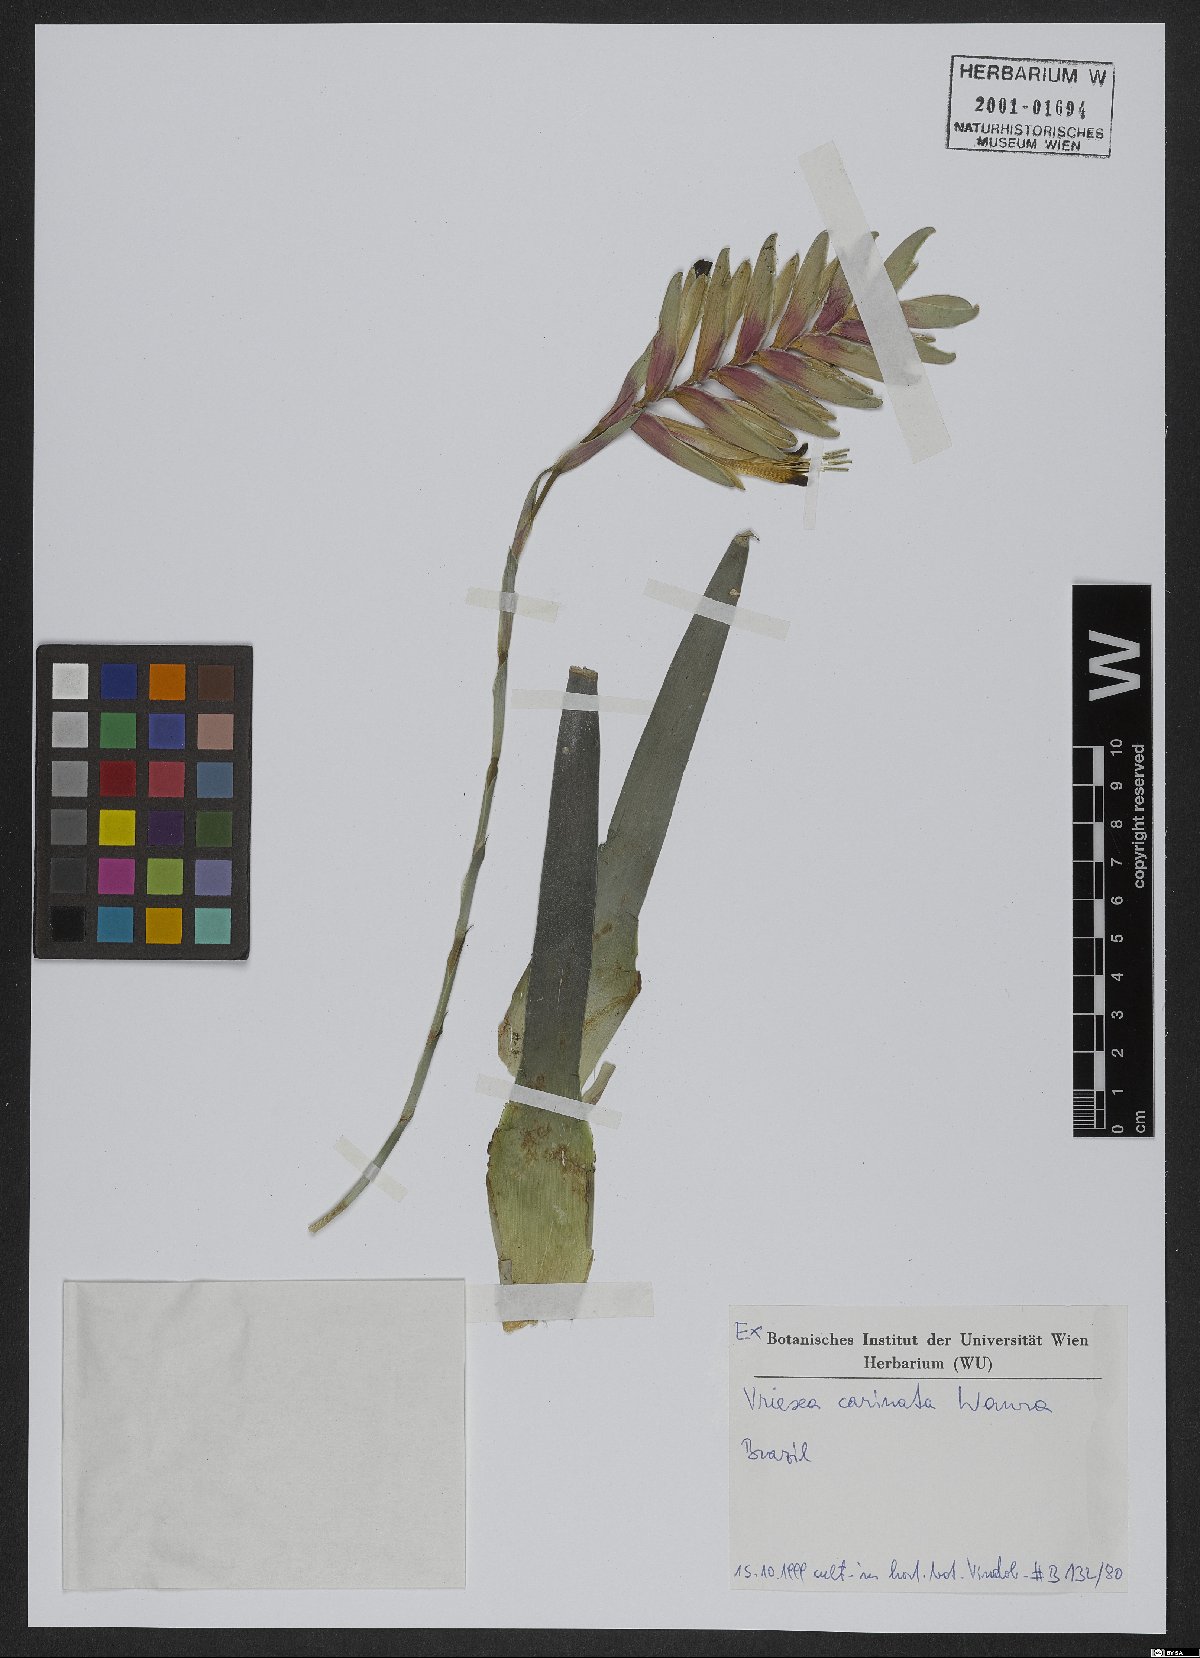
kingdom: Plantae
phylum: Tracheophyta
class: Liliopsida
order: Poales
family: Bromeliaceae
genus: Vriesea
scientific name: Vriesea carinata
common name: Lobster-claws
